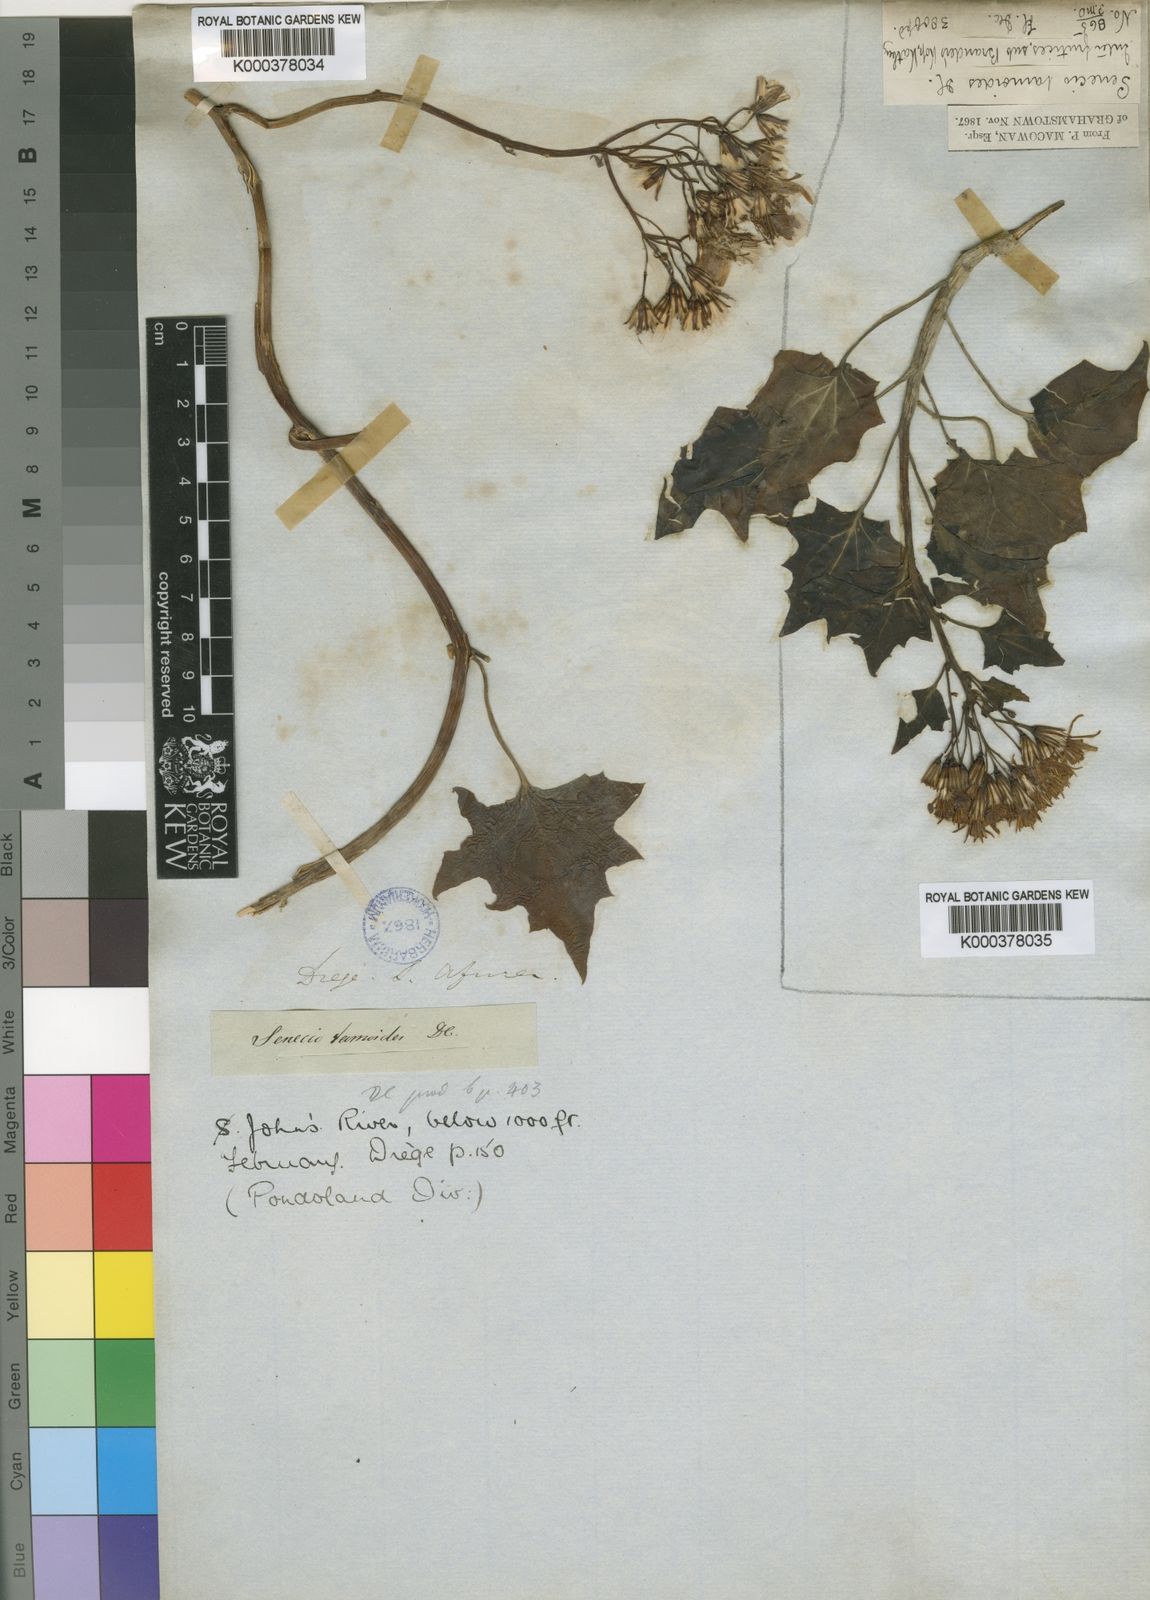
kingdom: Plantae
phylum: Tracheophyta
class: Magnoliopsida
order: Asterales
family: Asteraceae
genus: Senecio
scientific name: Senecio tamoides
